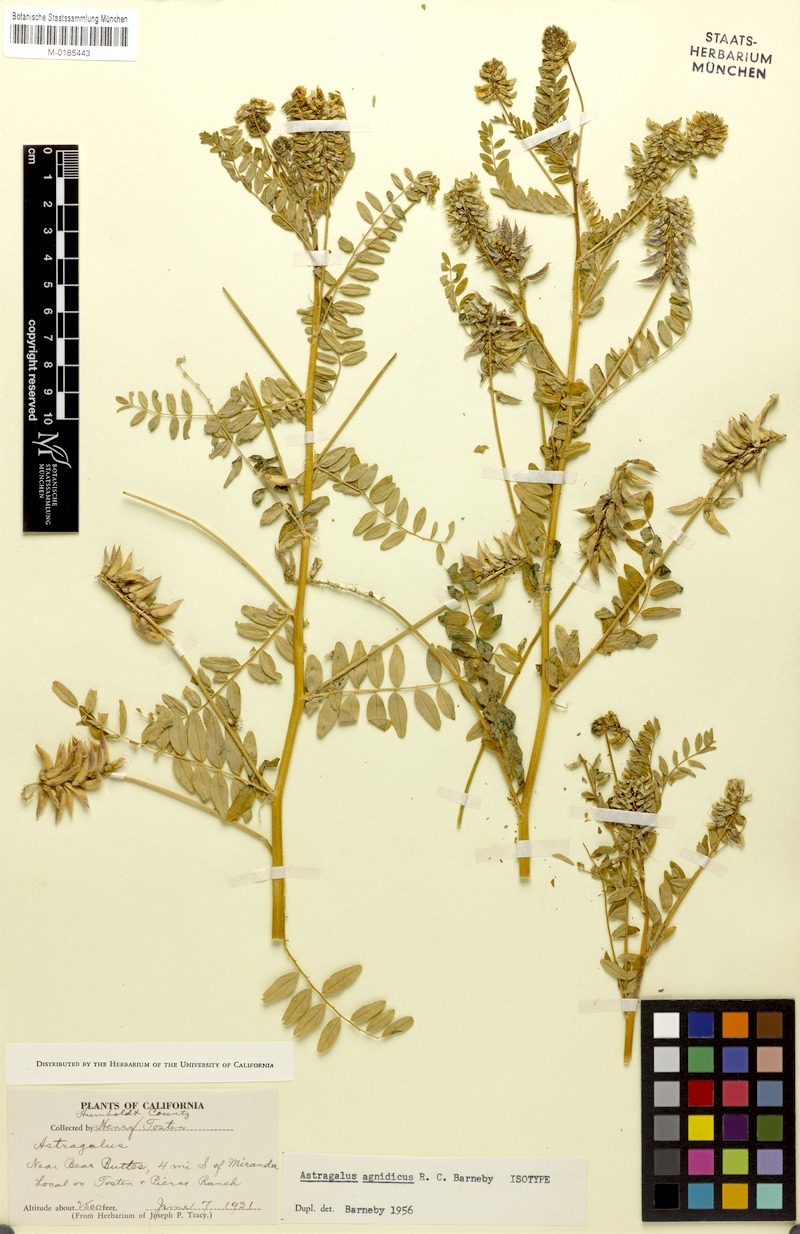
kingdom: Plantae
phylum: Tracheophyta
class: Magnoliopsida
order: Fabales
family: Fabaceae
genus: Astragalus
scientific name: Astragalus agnicidus
